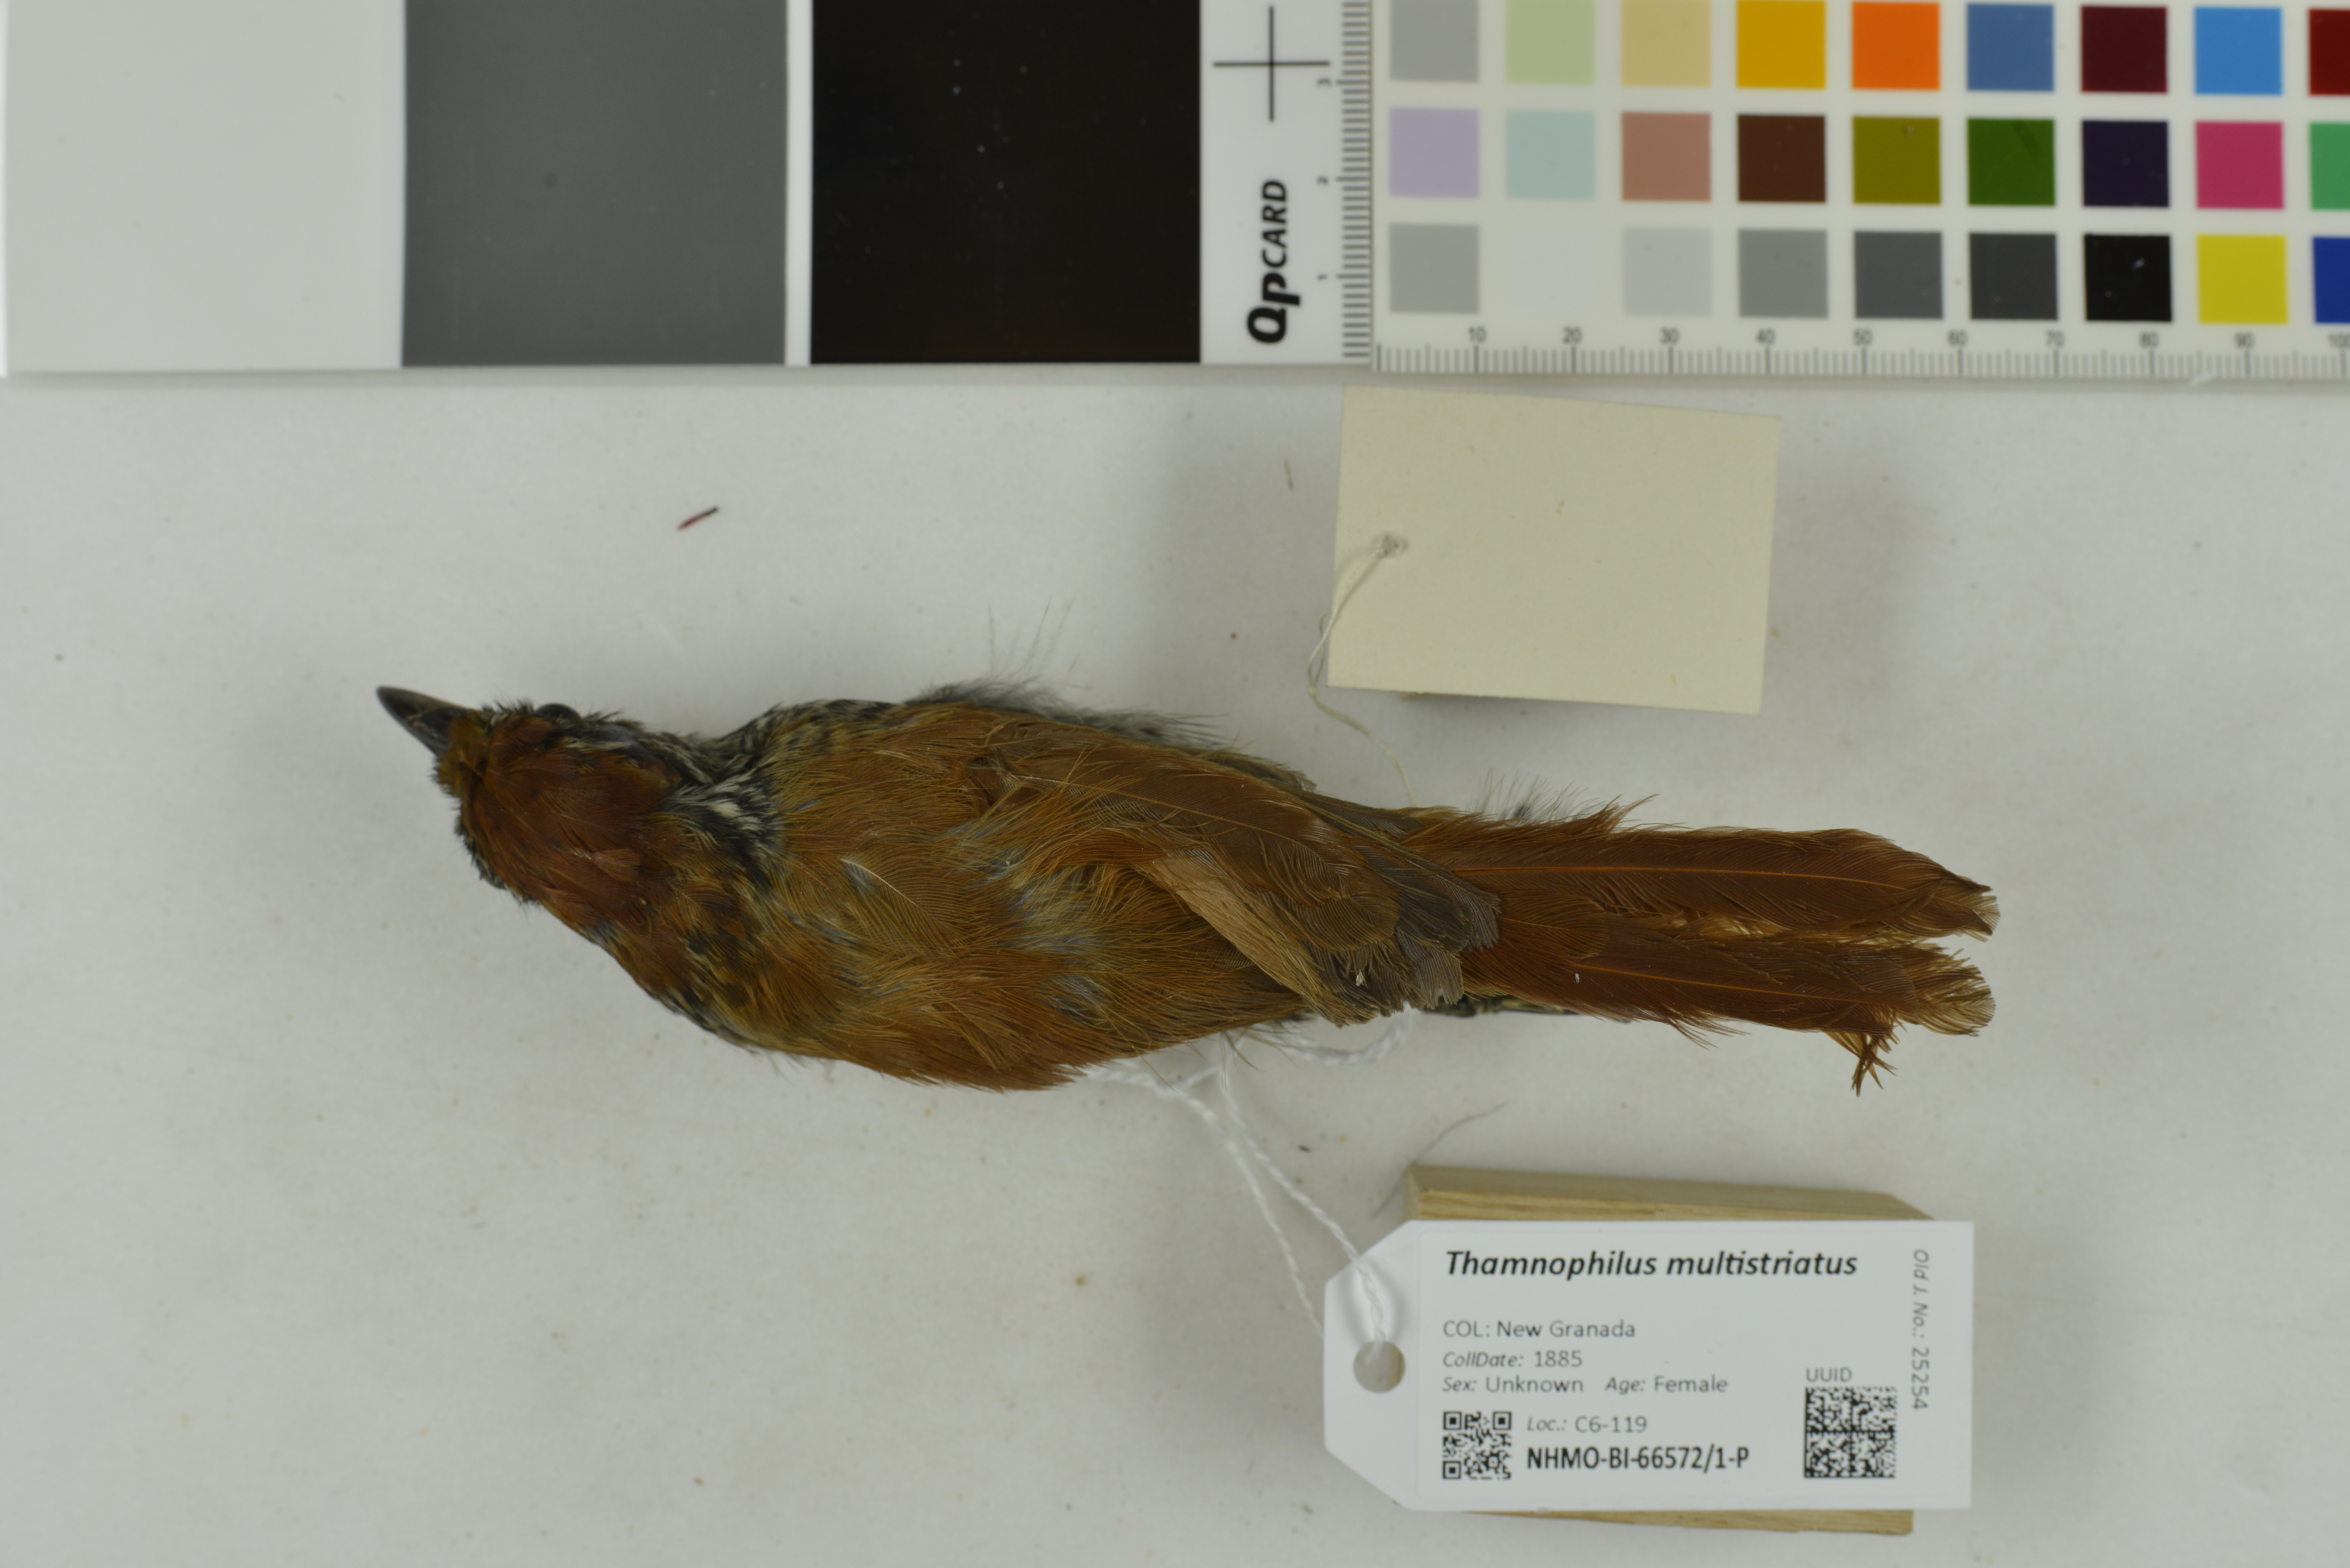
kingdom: Animalia
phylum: Chordata
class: Aves
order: Passeriformes
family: Thamnophilidae
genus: Thamnophilus
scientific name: Thamnophilus multistriatus
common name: Bar-crested antshrike
